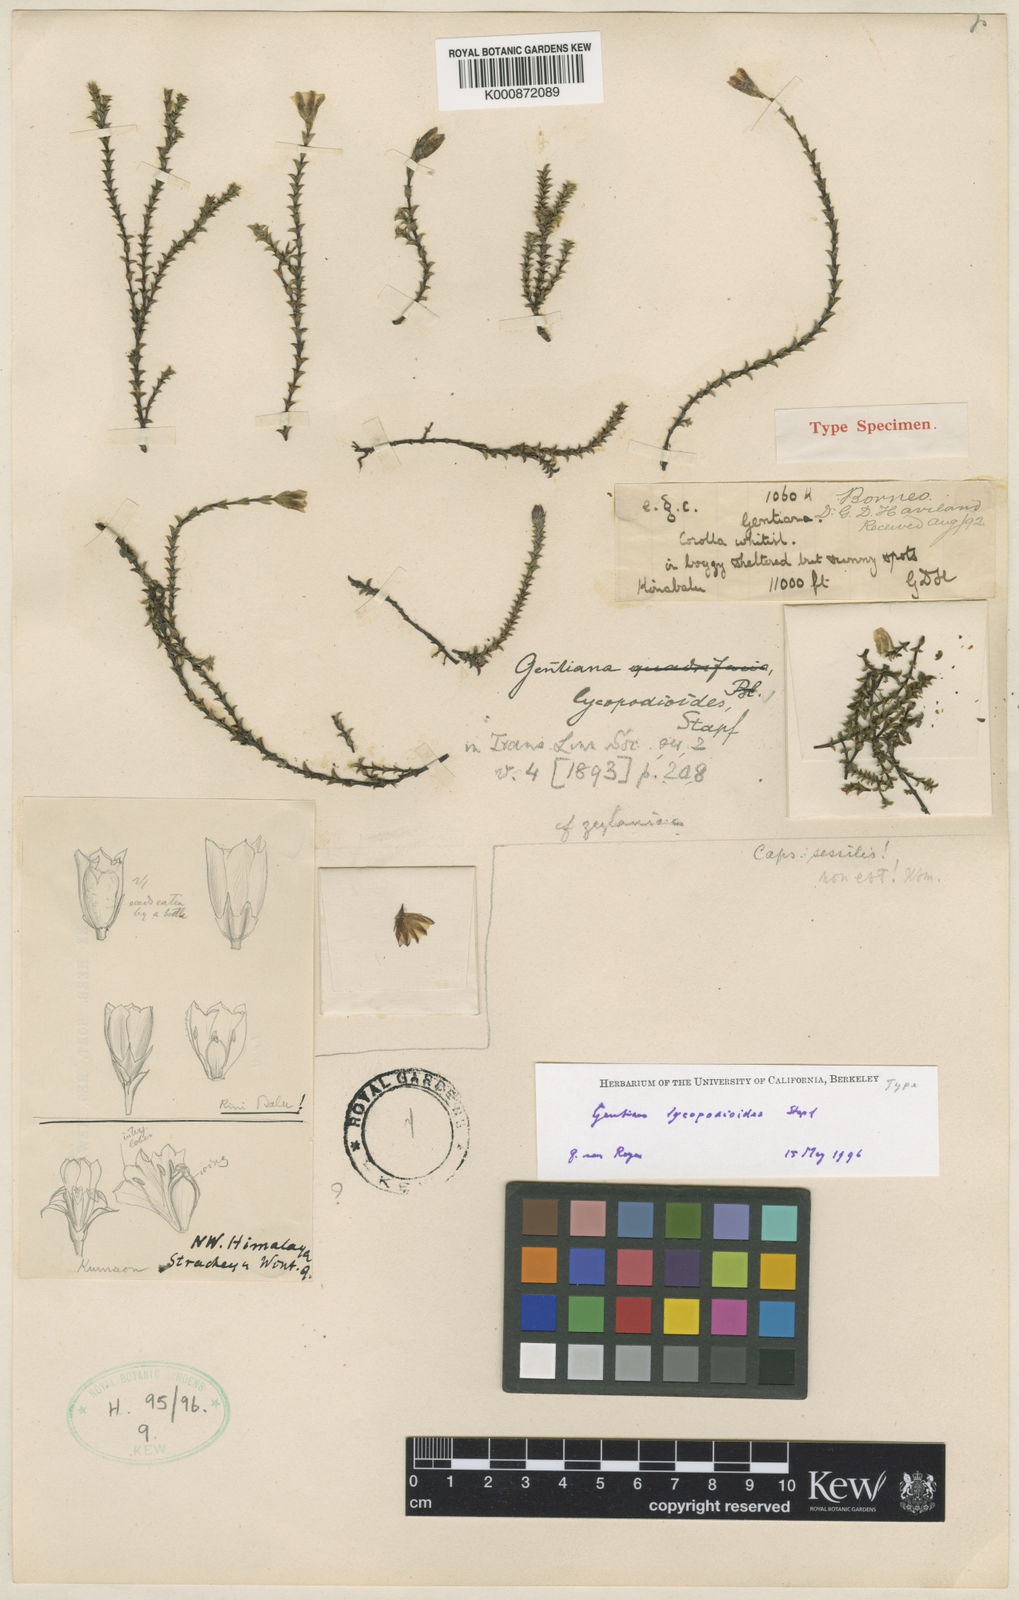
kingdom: Plantae
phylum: Tracheophyta
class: Magnoliopsida
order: Gentianales
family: Gentianaceae
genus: Gentiana
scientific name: Gentiana lycopodioides
